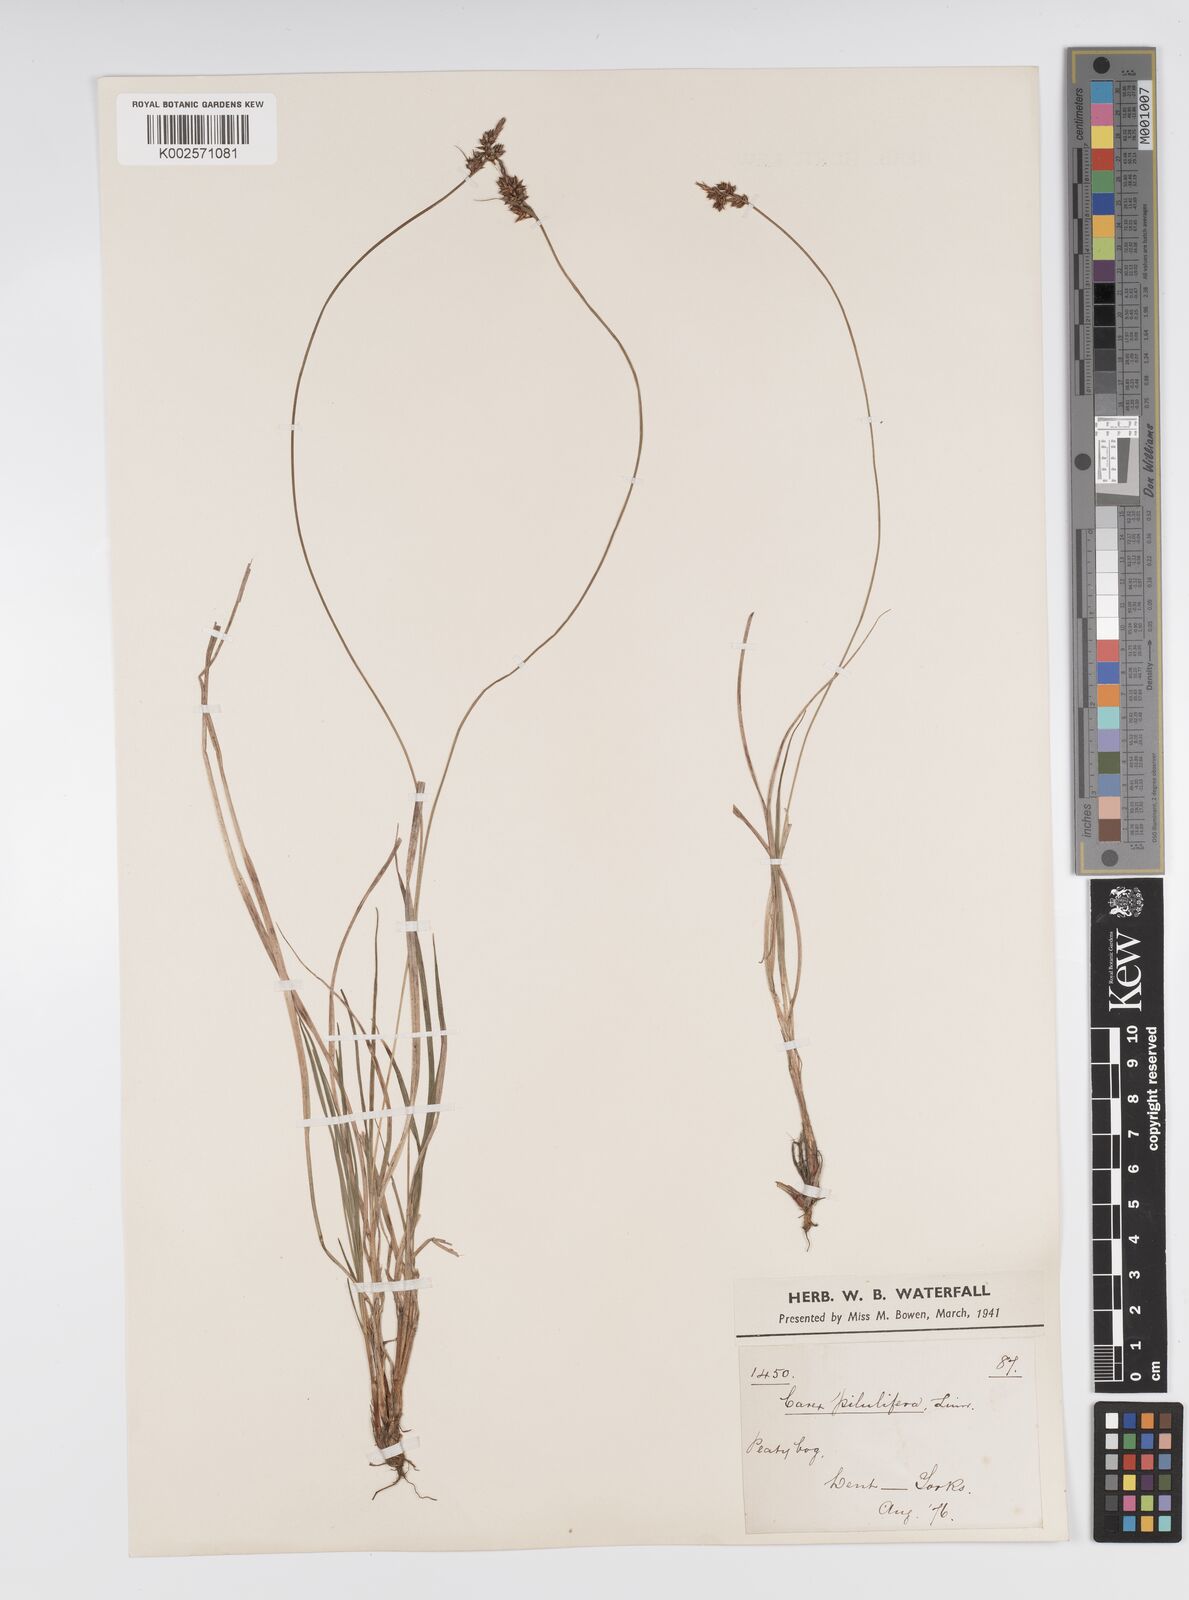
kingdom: Plantae
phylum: Tracheophyta
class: Liliopsida
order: Poales
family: Cyperaceae
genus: Carex
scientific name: Carex pilulifera
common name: Pill sedge
